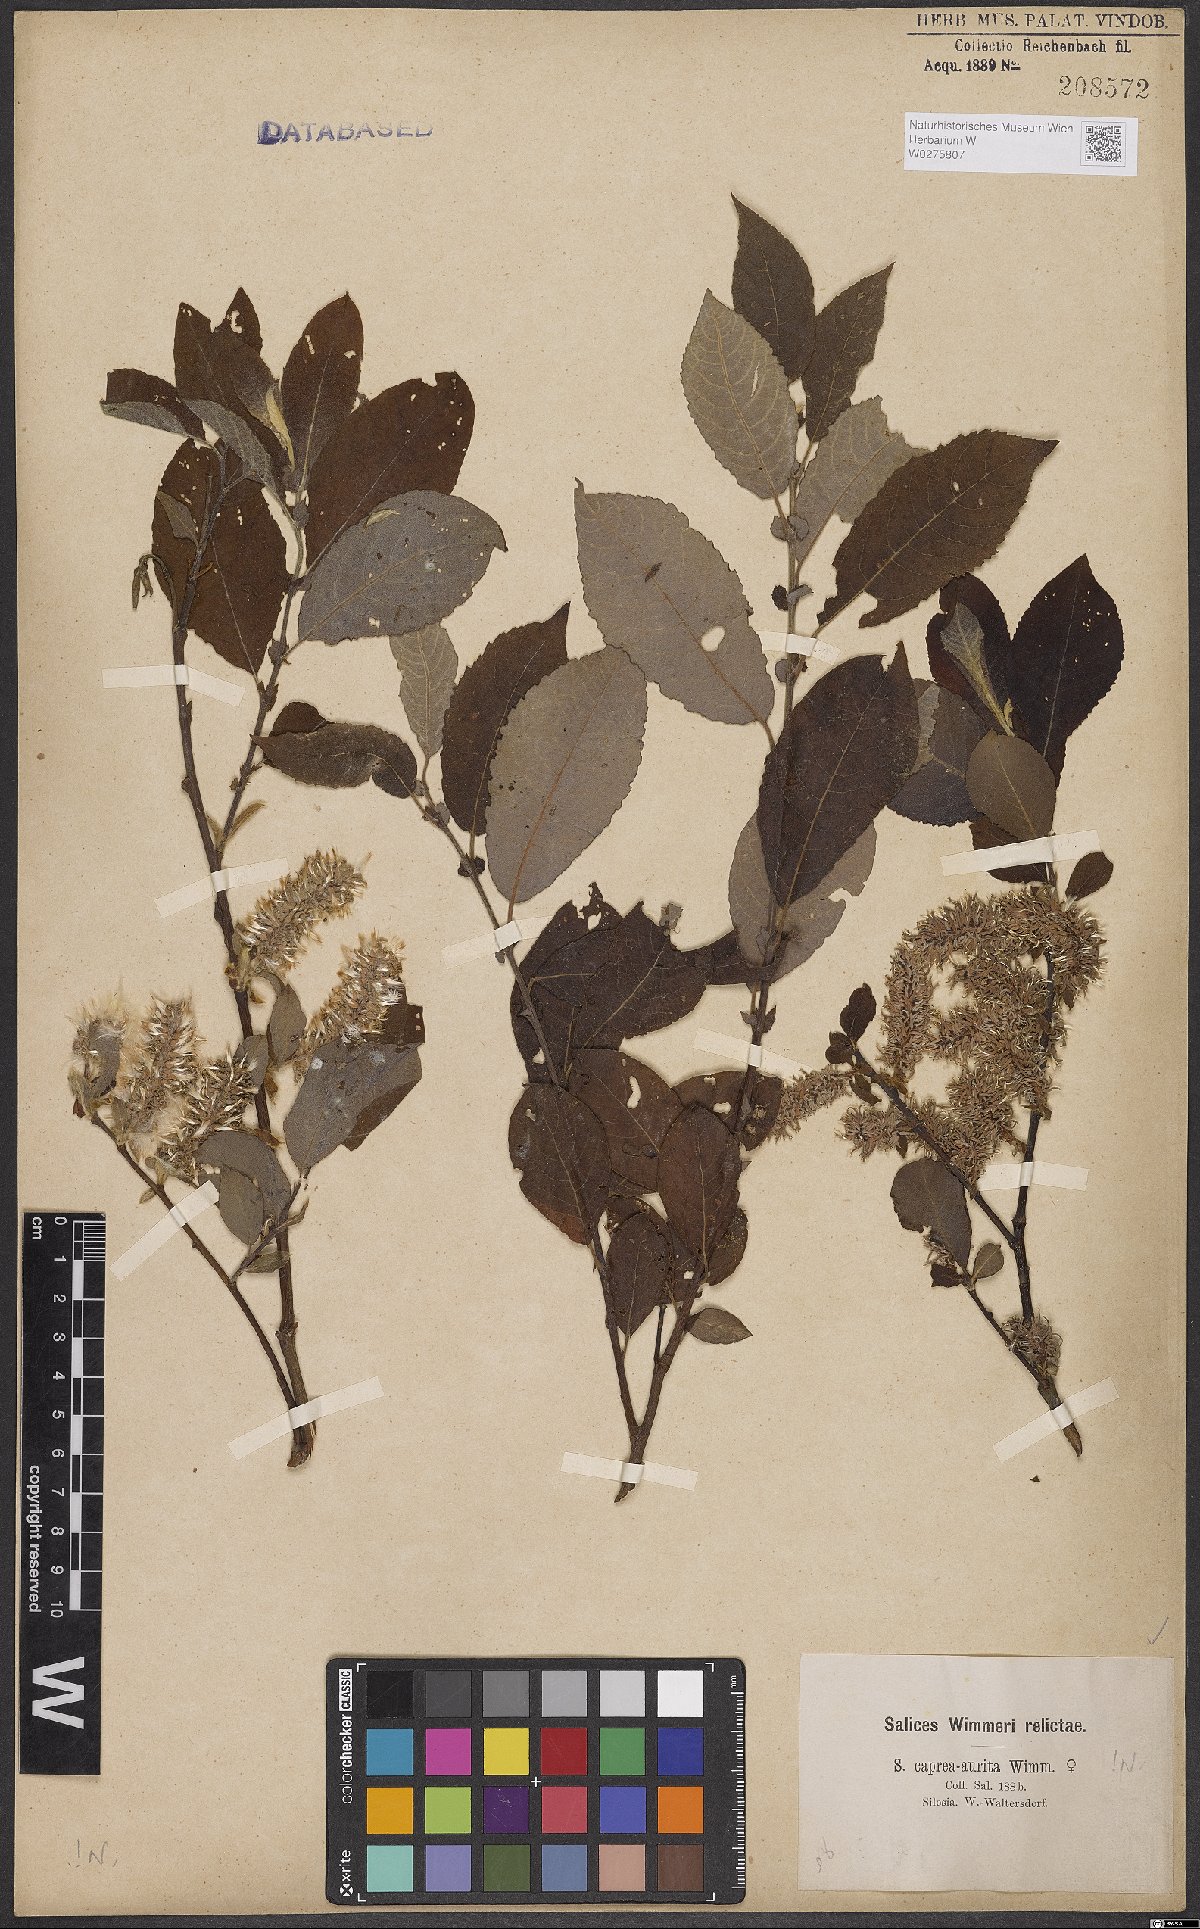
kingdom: Plantae
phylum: Tracheophyta
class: Magnoliopsida
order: Malpighiales
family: Salicaceae
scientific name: Salicaceae
